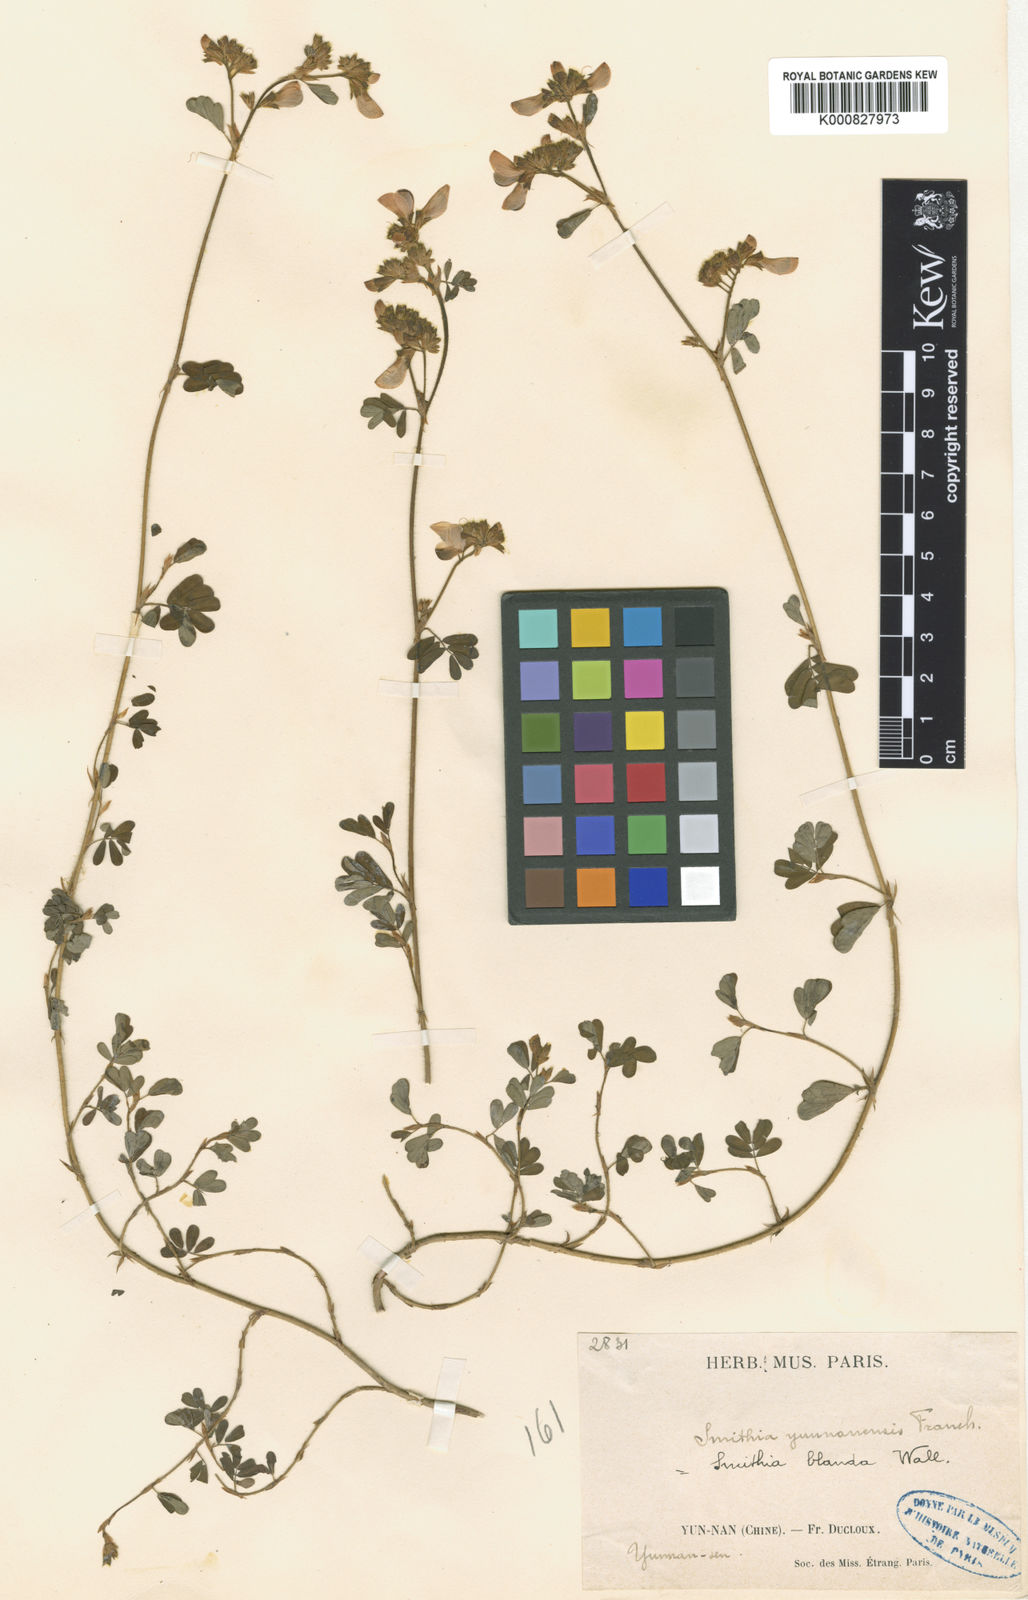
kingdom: Plantae
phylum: Tracheophyta
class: Magnoliopsida
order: Fabales
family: Fabaceae
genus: Smithia
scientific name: Smithia
